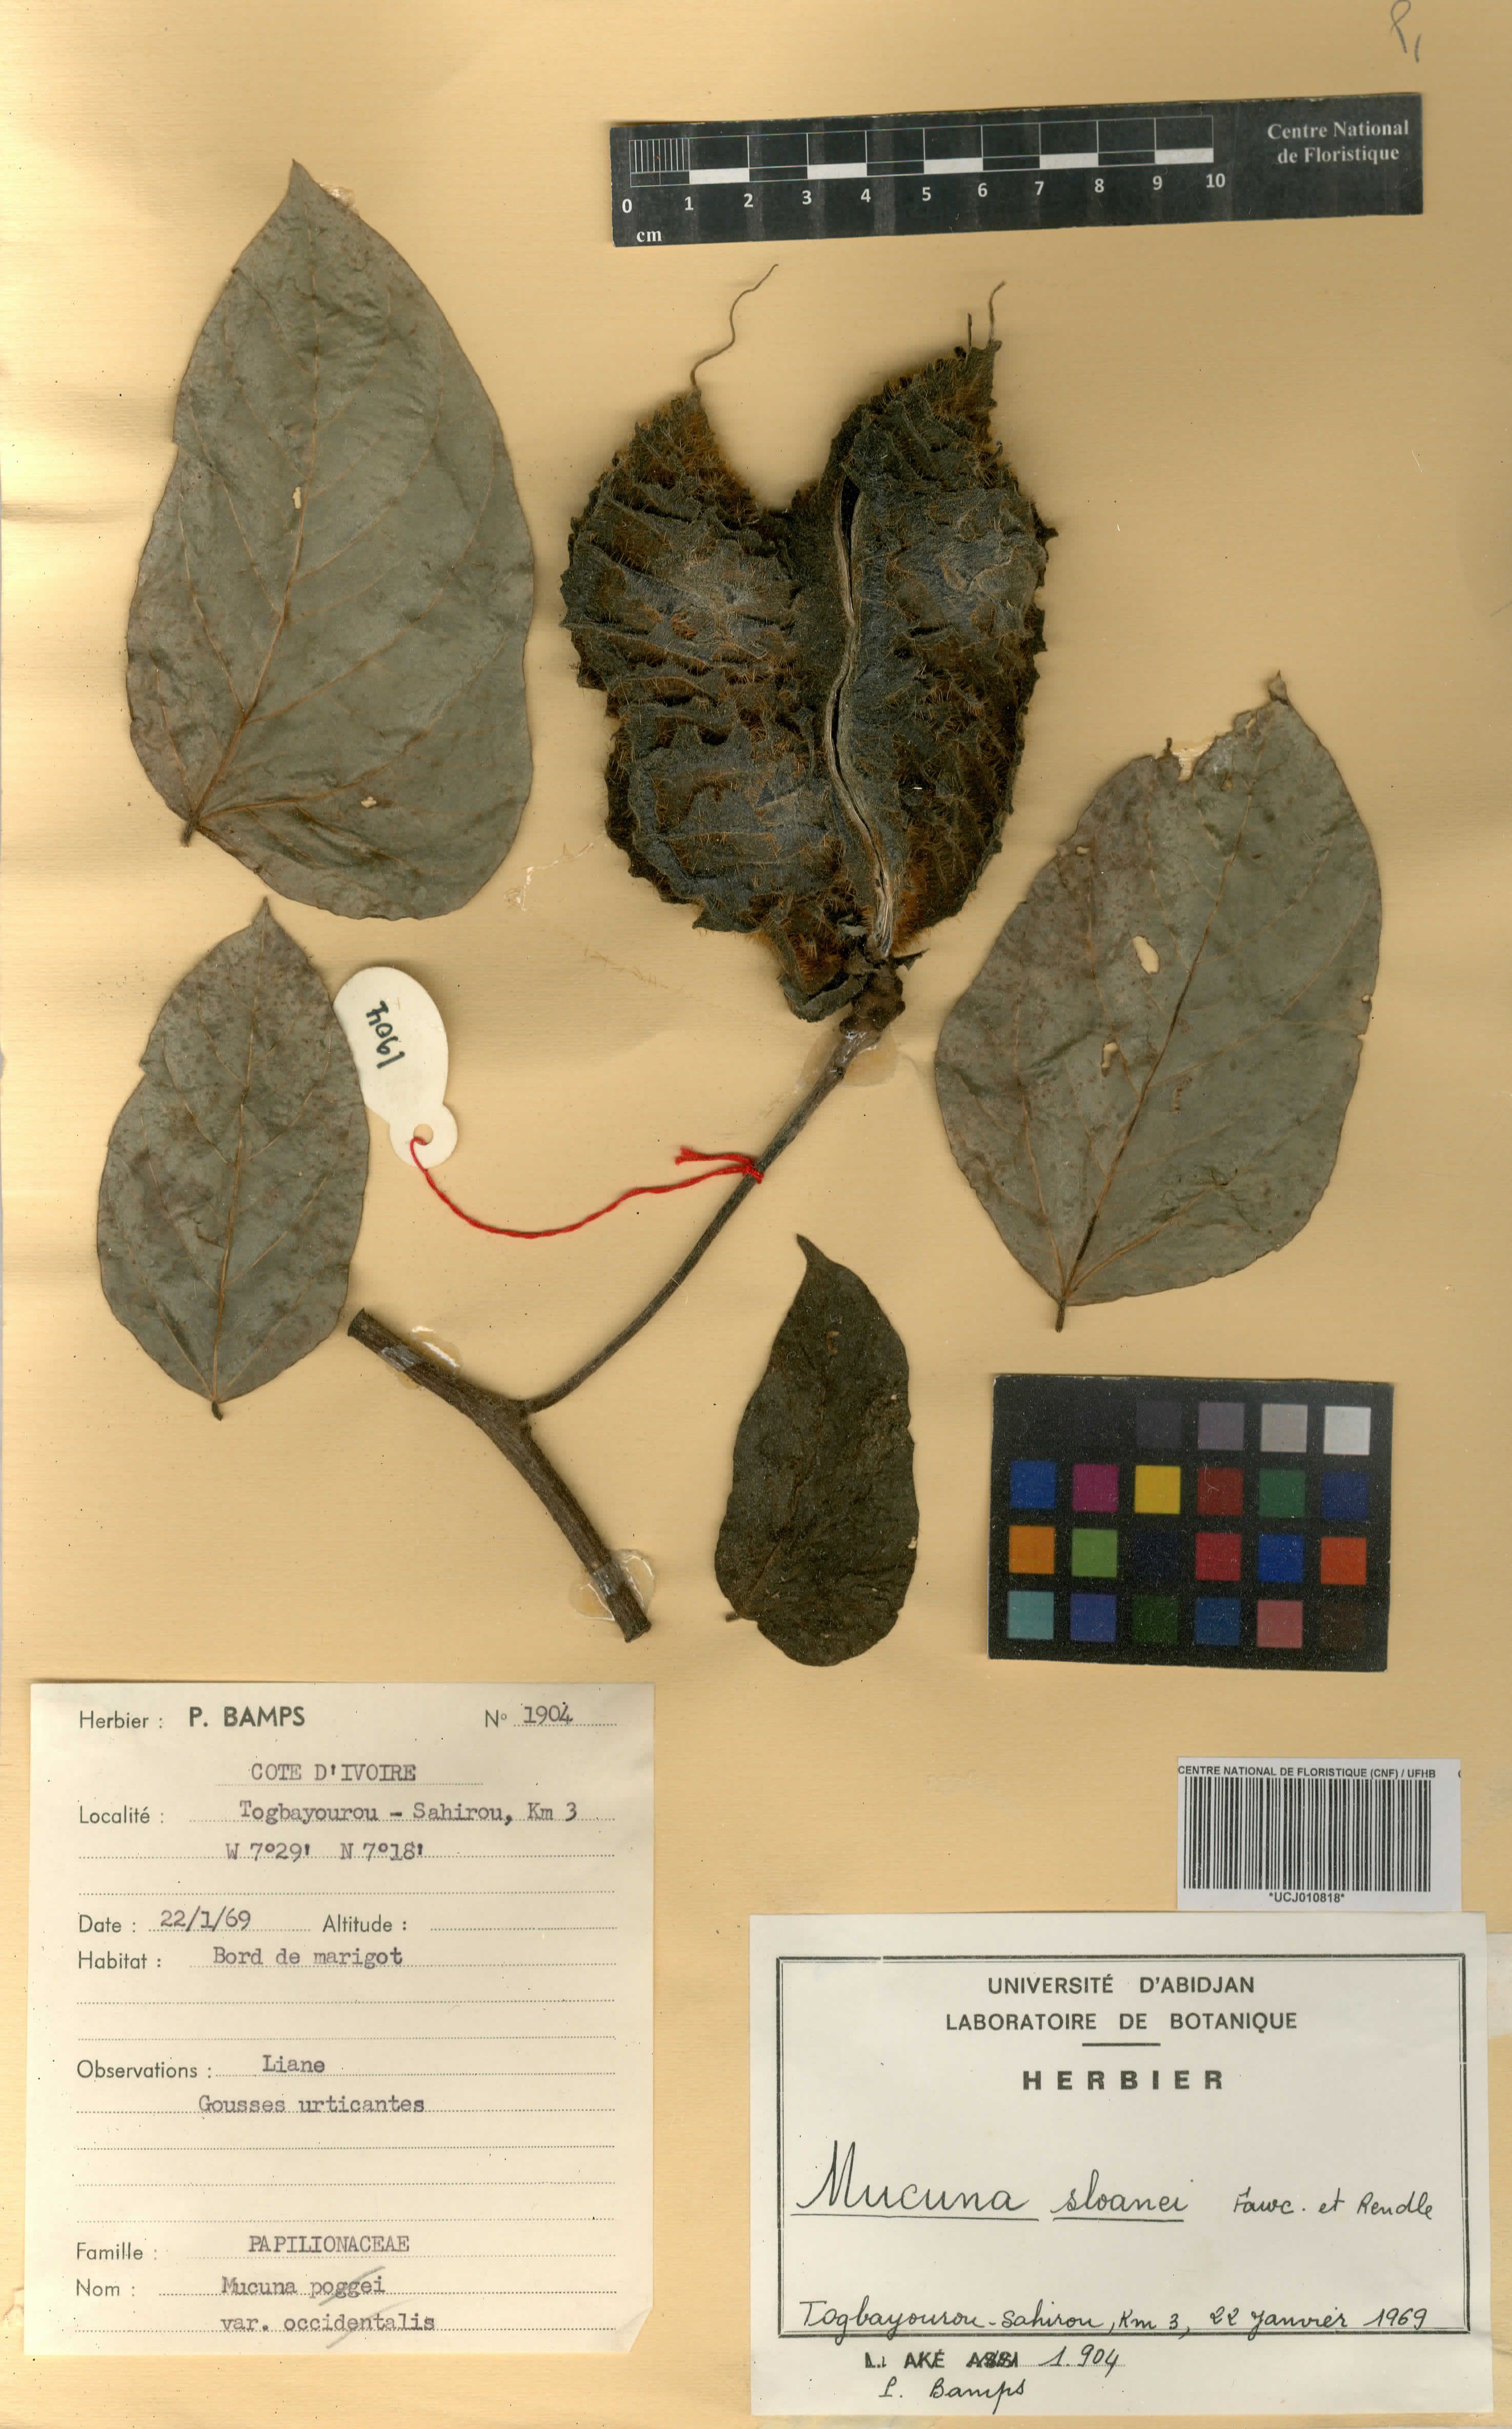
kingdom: Plantae
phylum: Tracheophyta
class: Magnoliopsida
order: Fabales
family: Fabaceae
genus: Mucuna
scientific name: Mucuna sloanei
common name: Horse-eye bean
